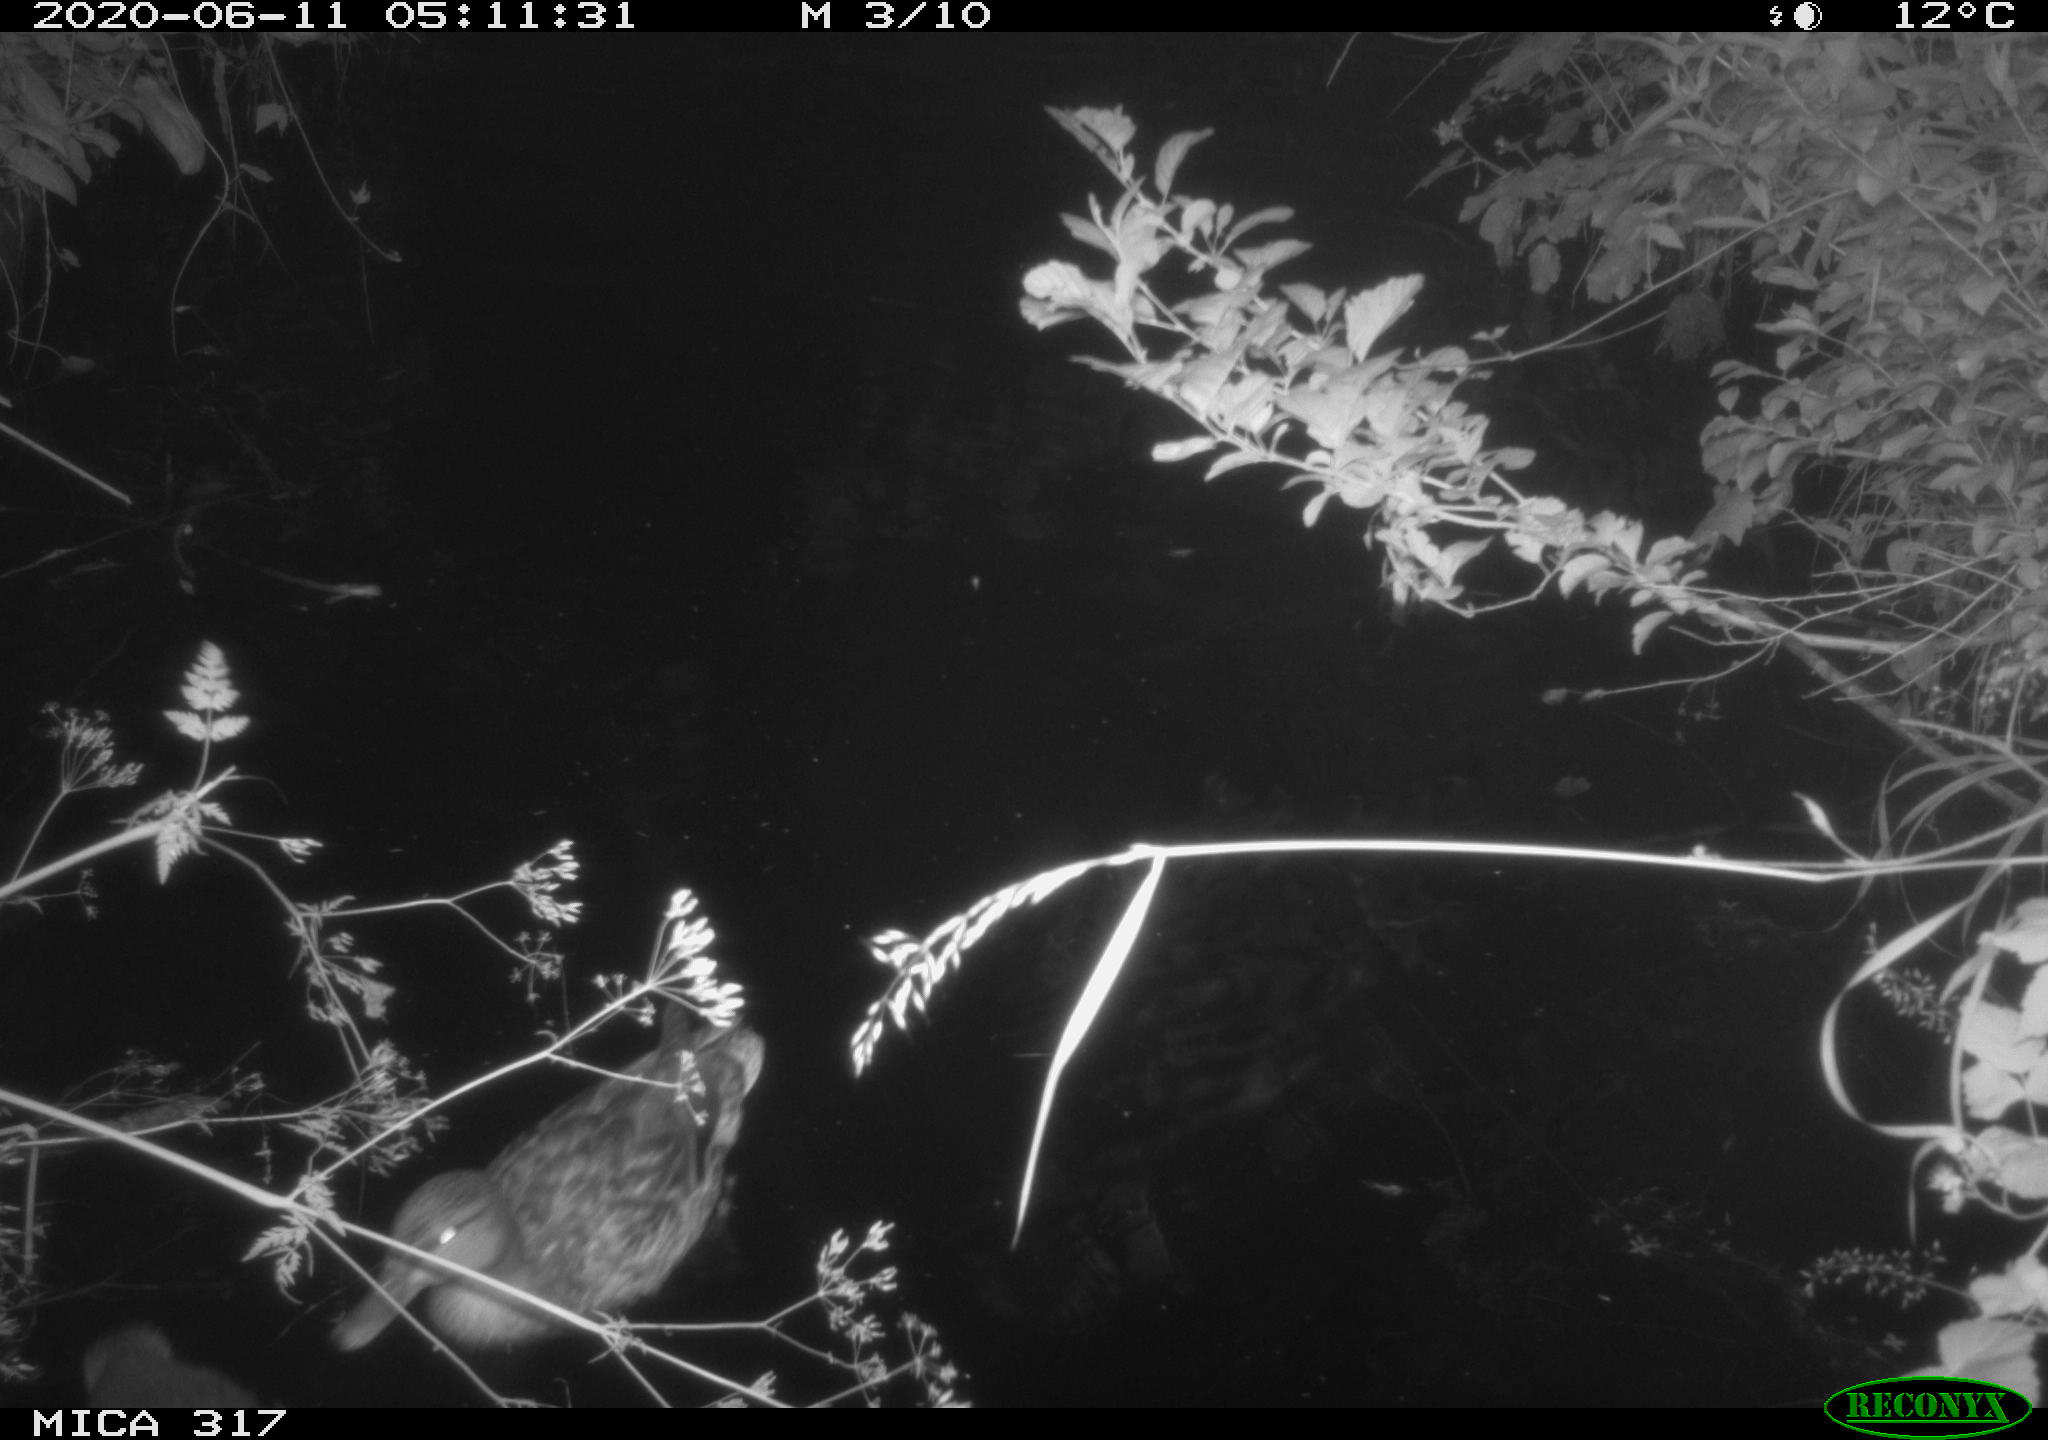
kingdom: Animalia
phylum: Chordata
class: Aves
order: Anseriformes
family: Anatidae
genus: Anas
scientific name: Anas platyrhynchos
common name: Mallard
